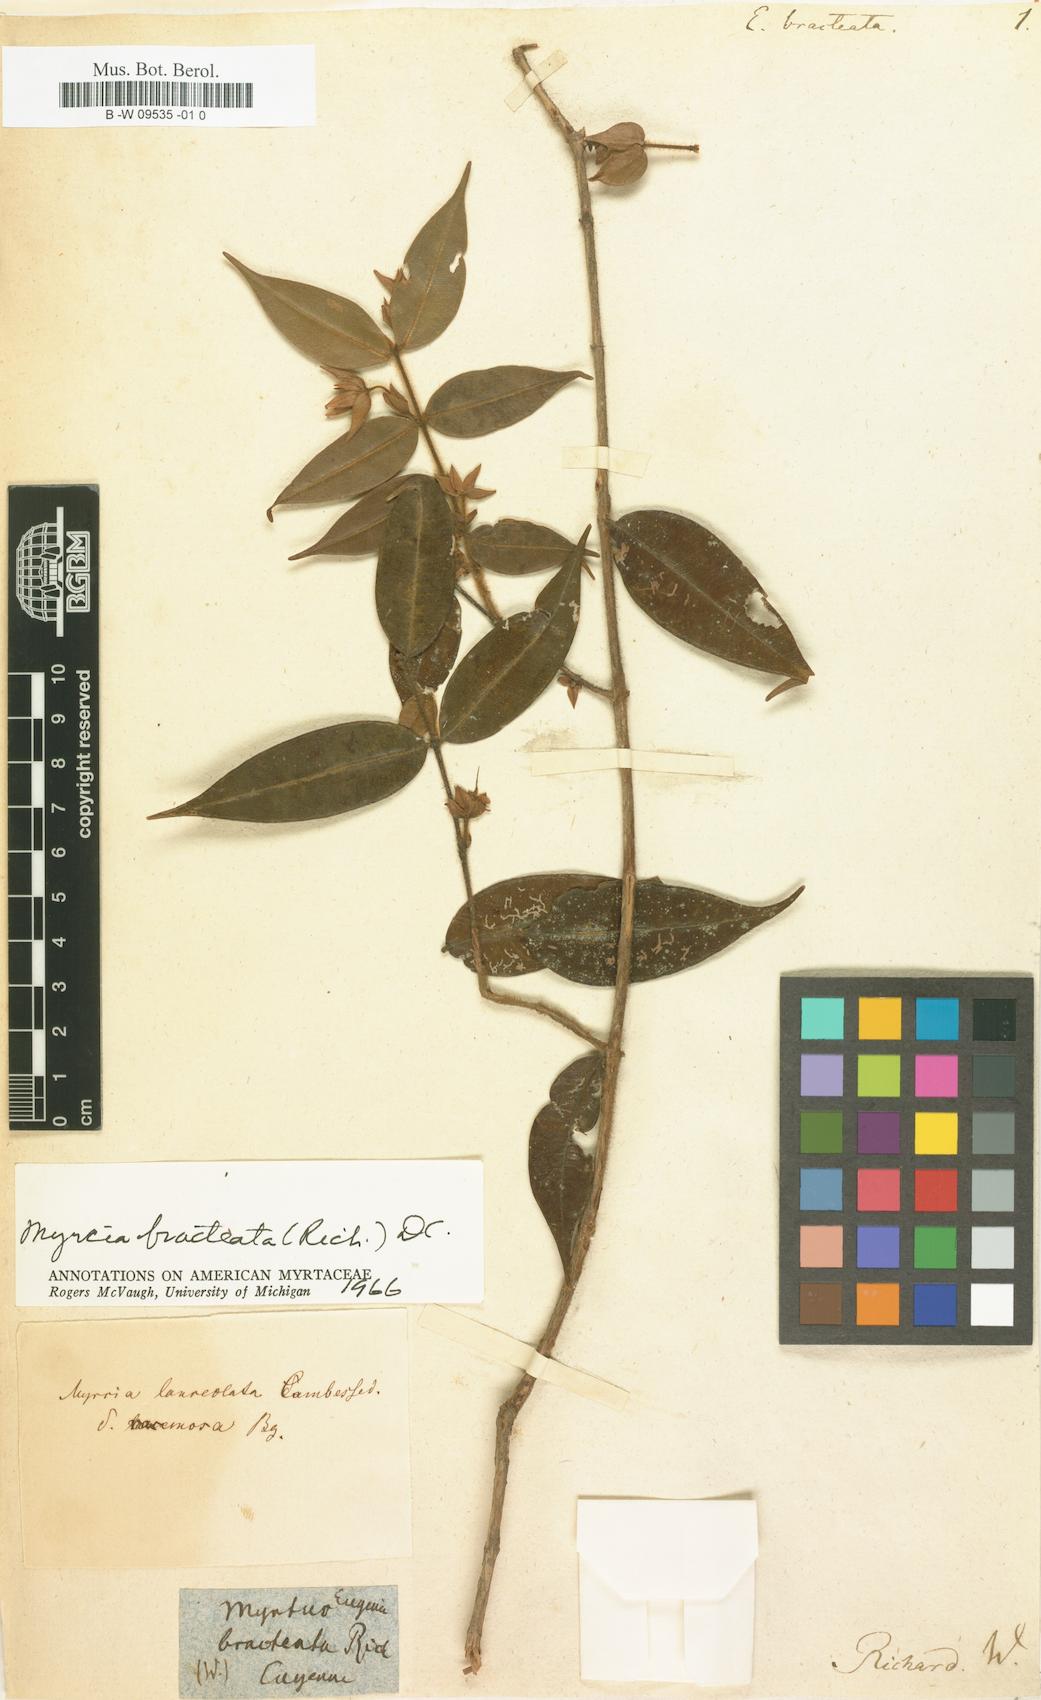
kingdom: Plantae
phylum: Tracheophyta
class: Magnoliopsida
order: Myrtales
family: Myrtaceae
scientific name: Myrtaceae
